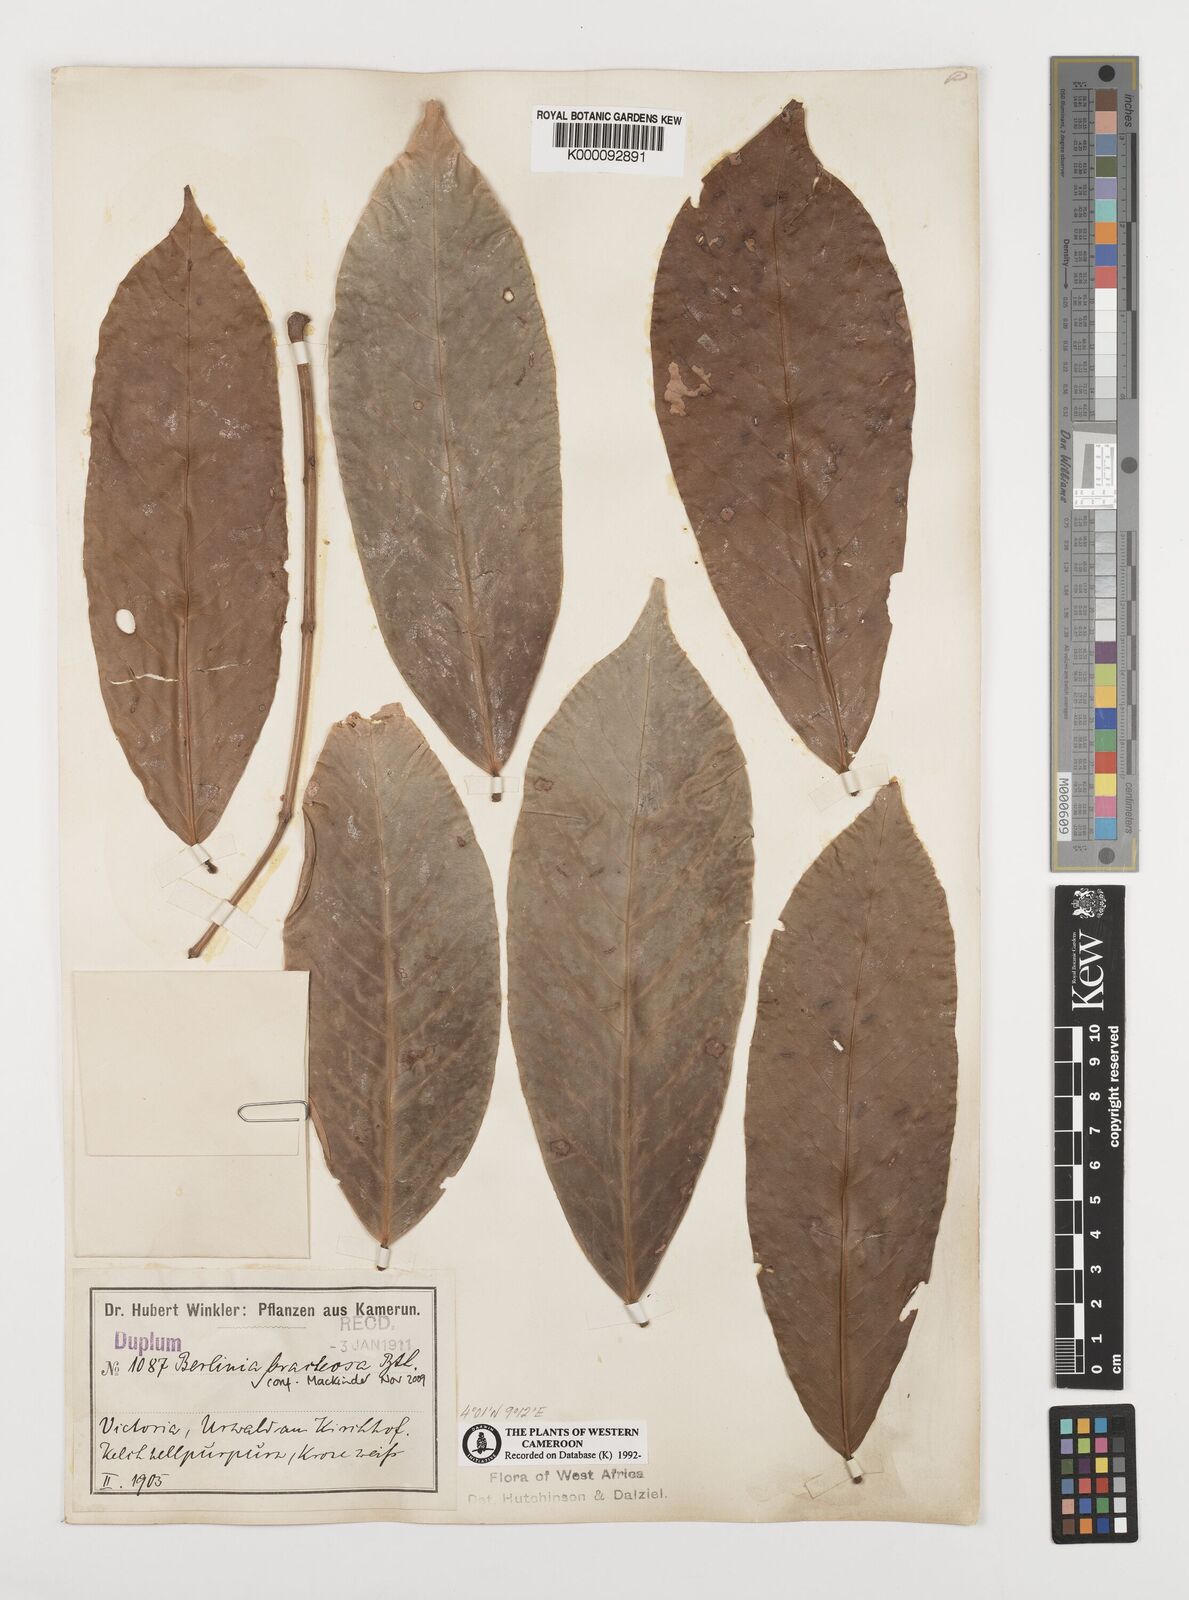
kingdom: Plantae
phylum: Tracheophyta
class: Magnoliopsida
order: Fabales
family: Fabaceae
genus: Berlinia
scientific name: Berlinia bracteosa
